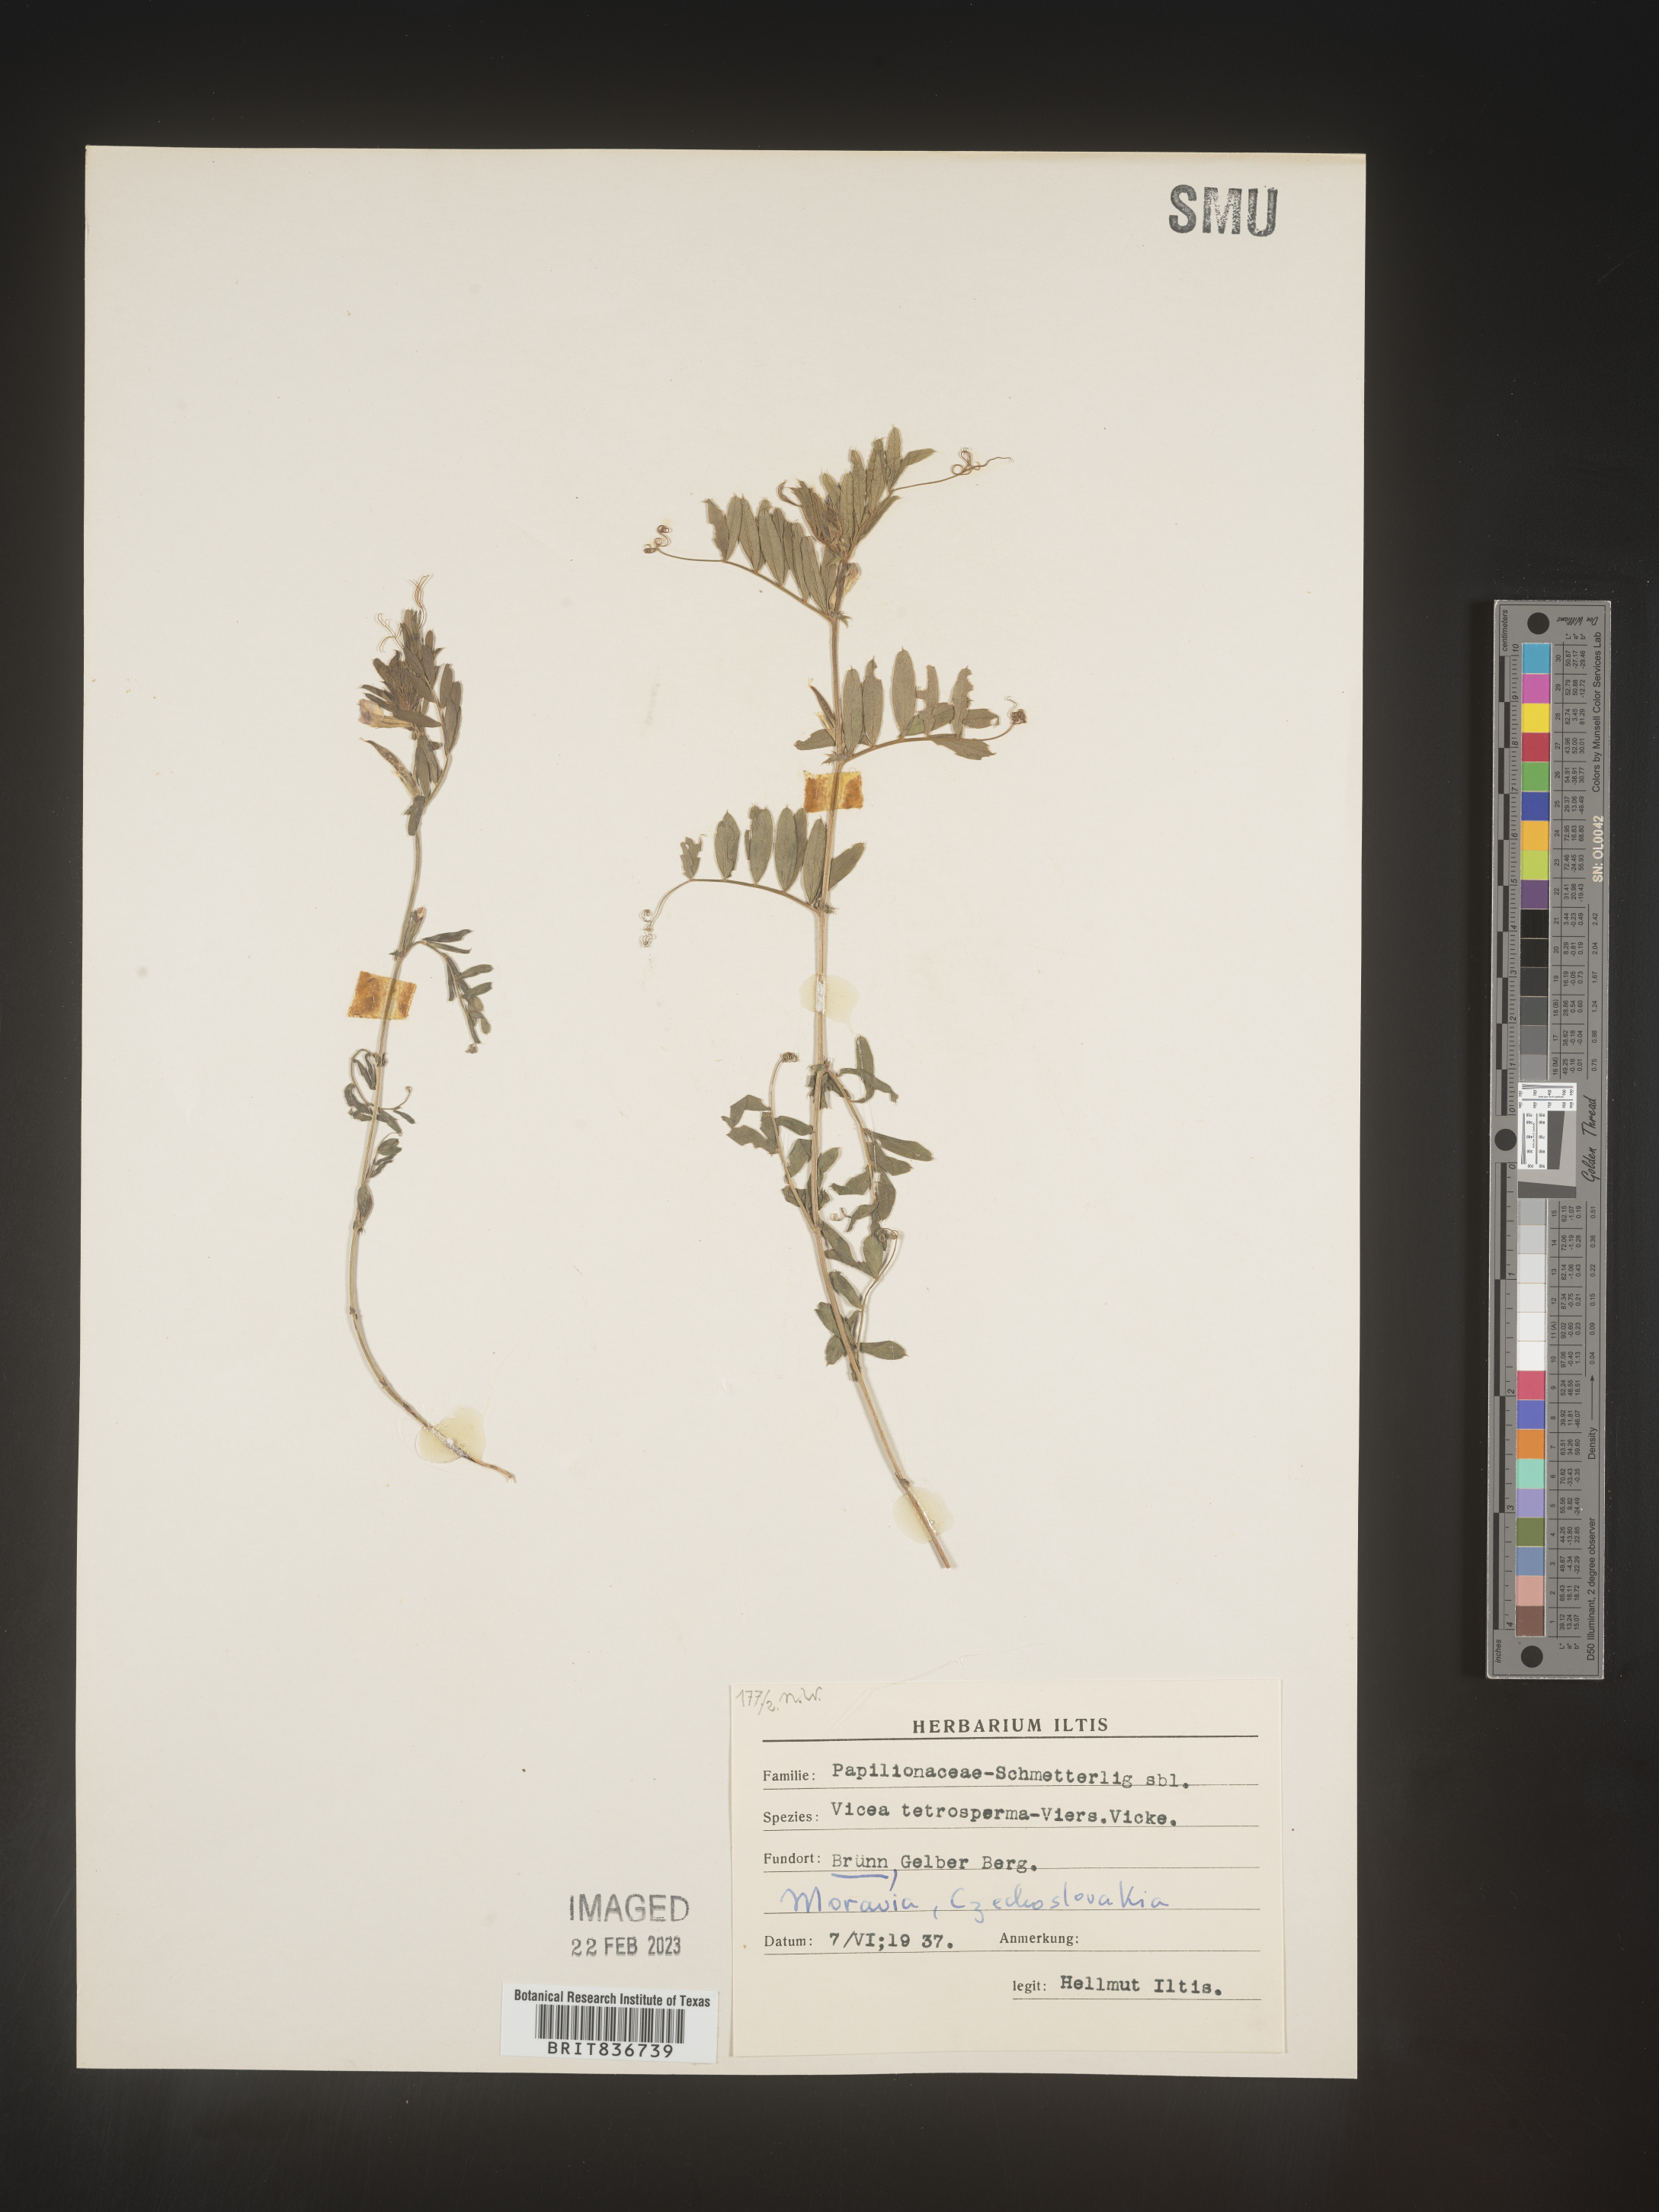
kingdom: Plantae
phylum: Tracheophyta
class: Magnoliopsida
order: Fabales
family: Fabaceae
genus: Vicia
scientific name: Vicia
